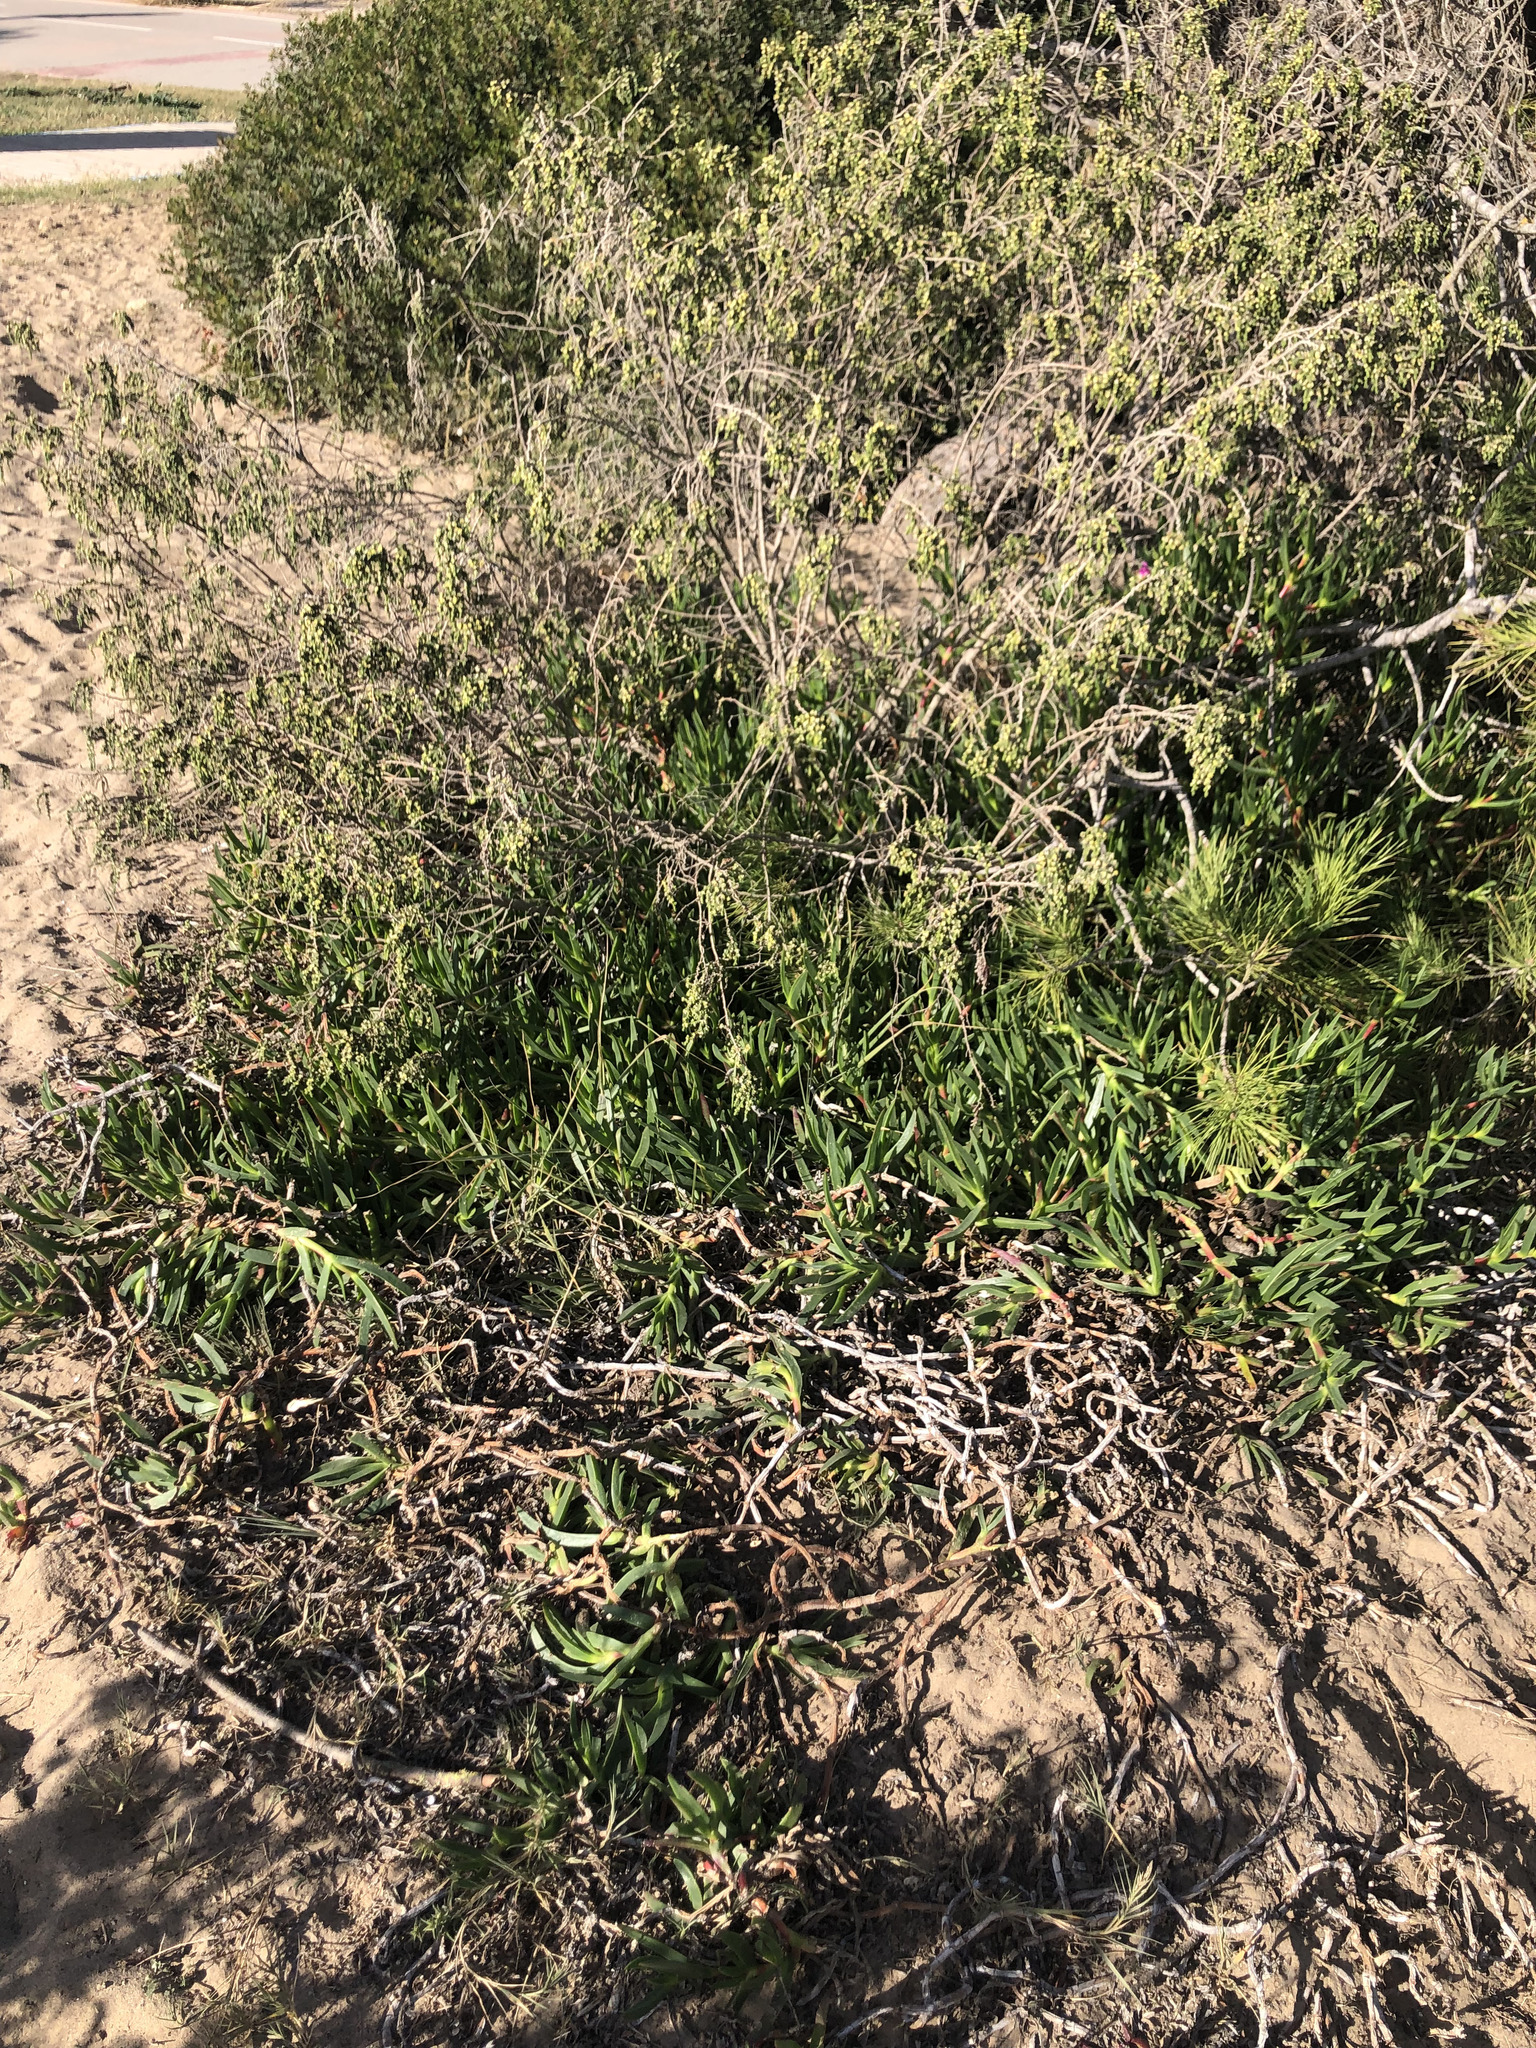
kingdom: Plantae
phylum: Tracheophyta
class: Magnoliopsida
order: Caryophyllales
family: Aizoaceae
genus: Carpobrotus
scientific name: Carpobrotus edulis
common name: Hottentot-fig
